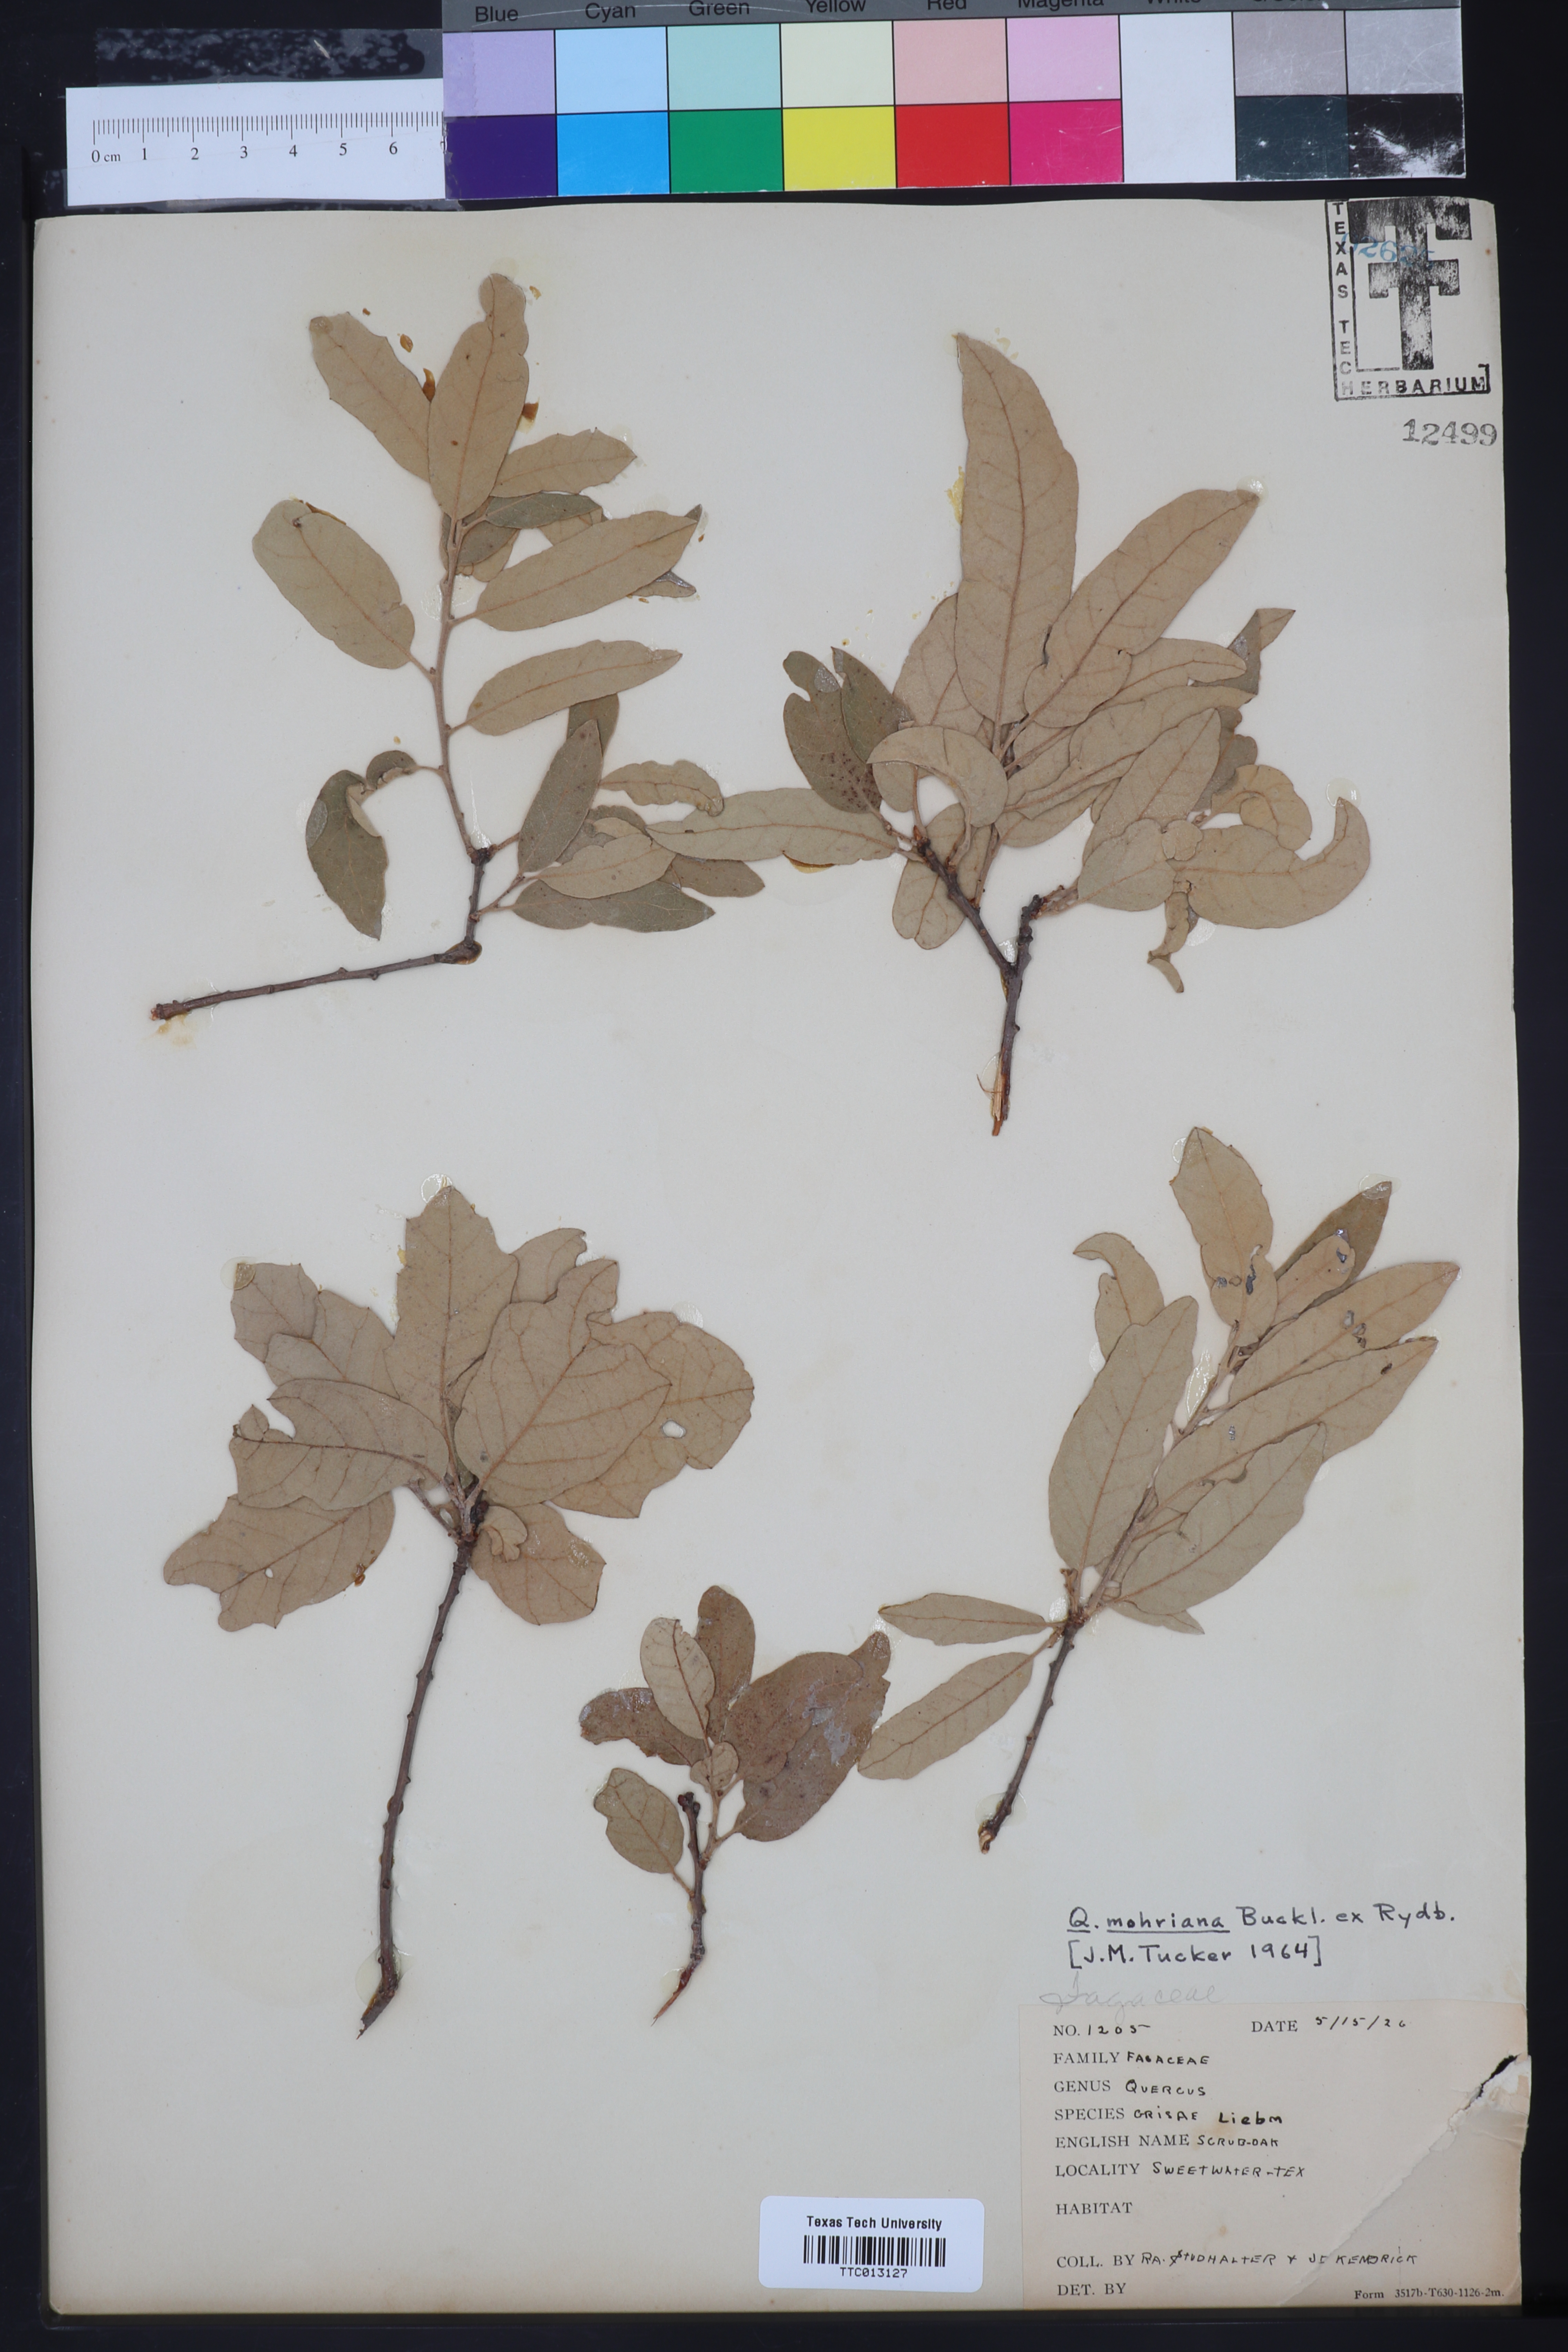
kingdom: Plantae
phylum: Tracheophyta
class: Magnoliopsida
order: Fagales
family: Fagaceae
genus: Quercus
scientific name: Quercus mohriana
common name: Mohr oak
